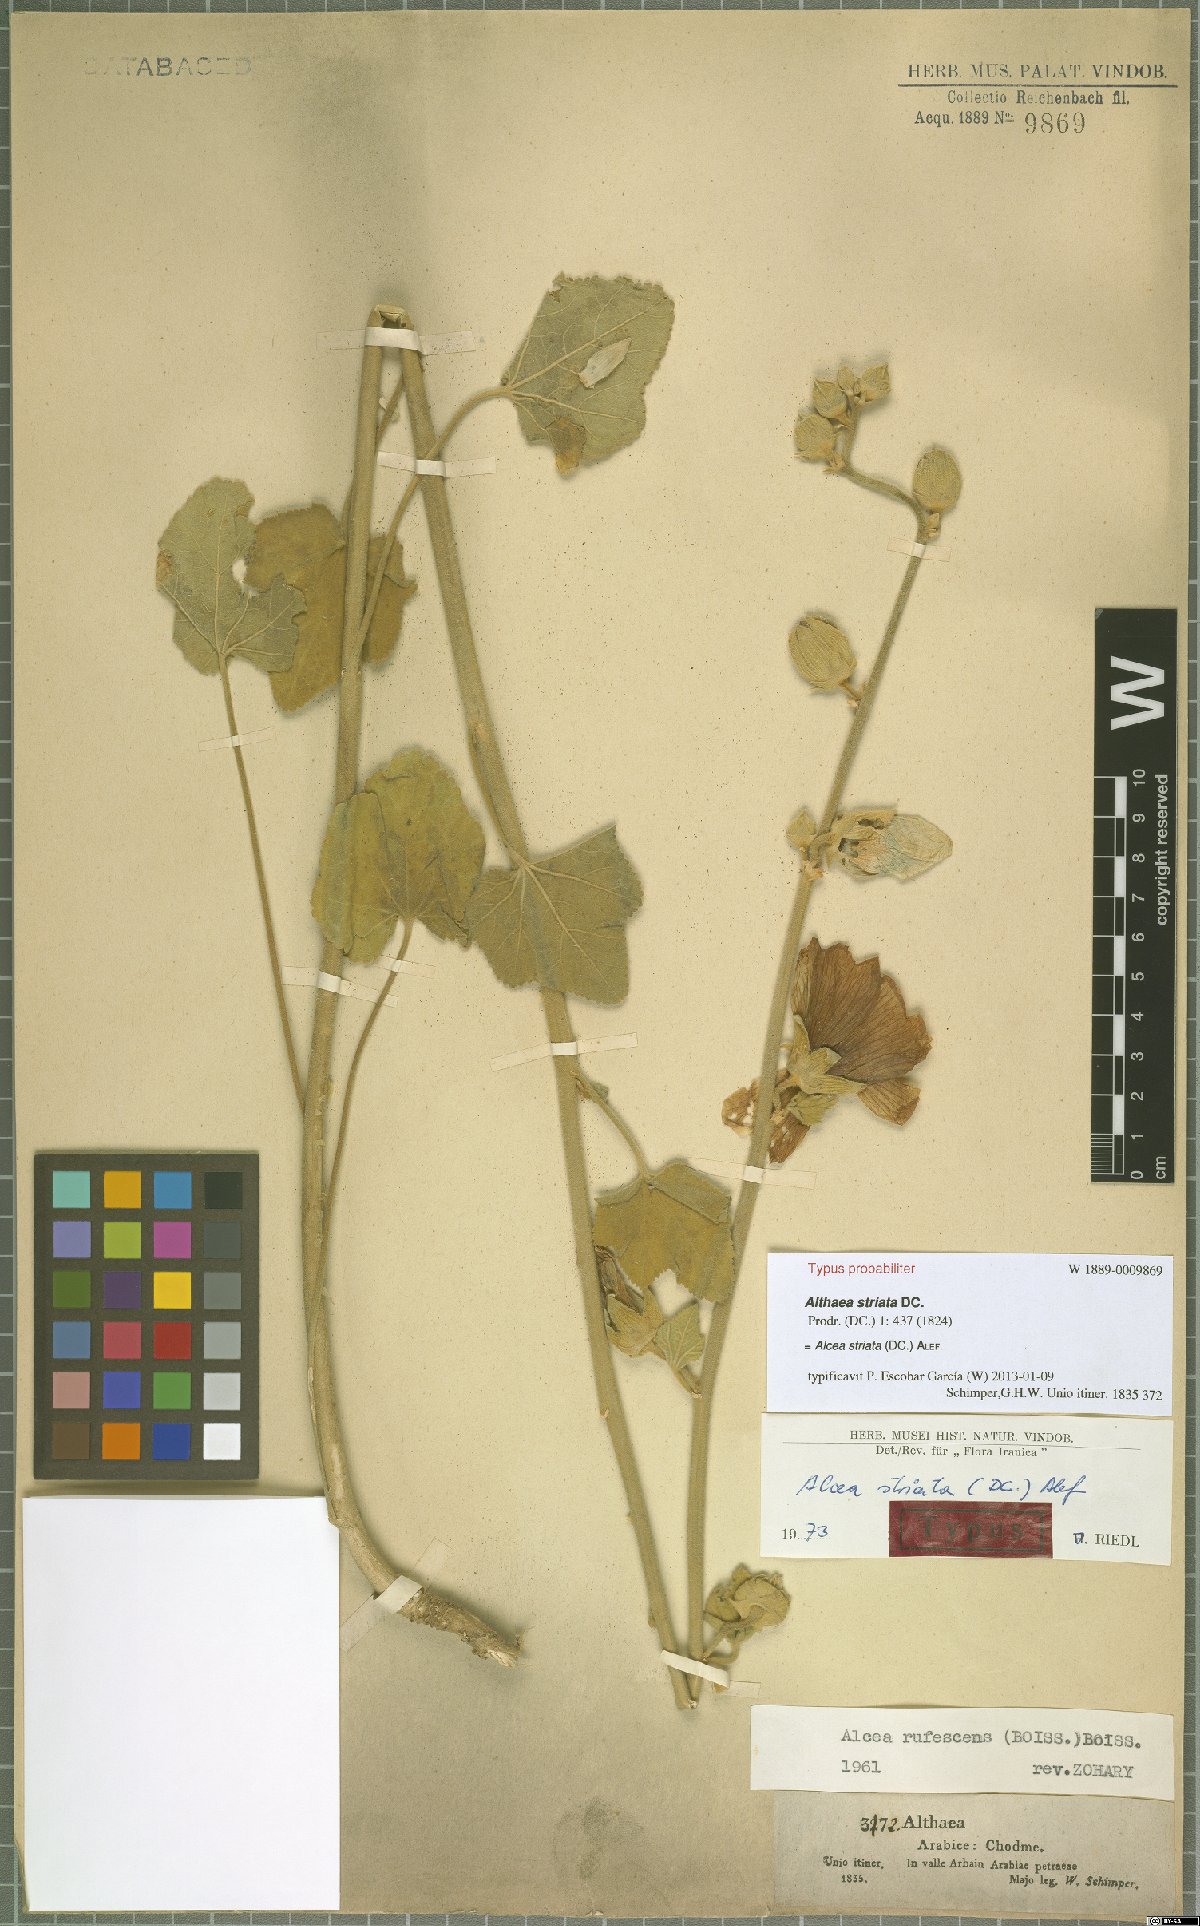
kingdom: Plantae
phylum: Tracheophyta
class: Magnoliopsida
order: Malvales
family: Malvaceae
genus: Alcea
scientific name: Alcea striata
